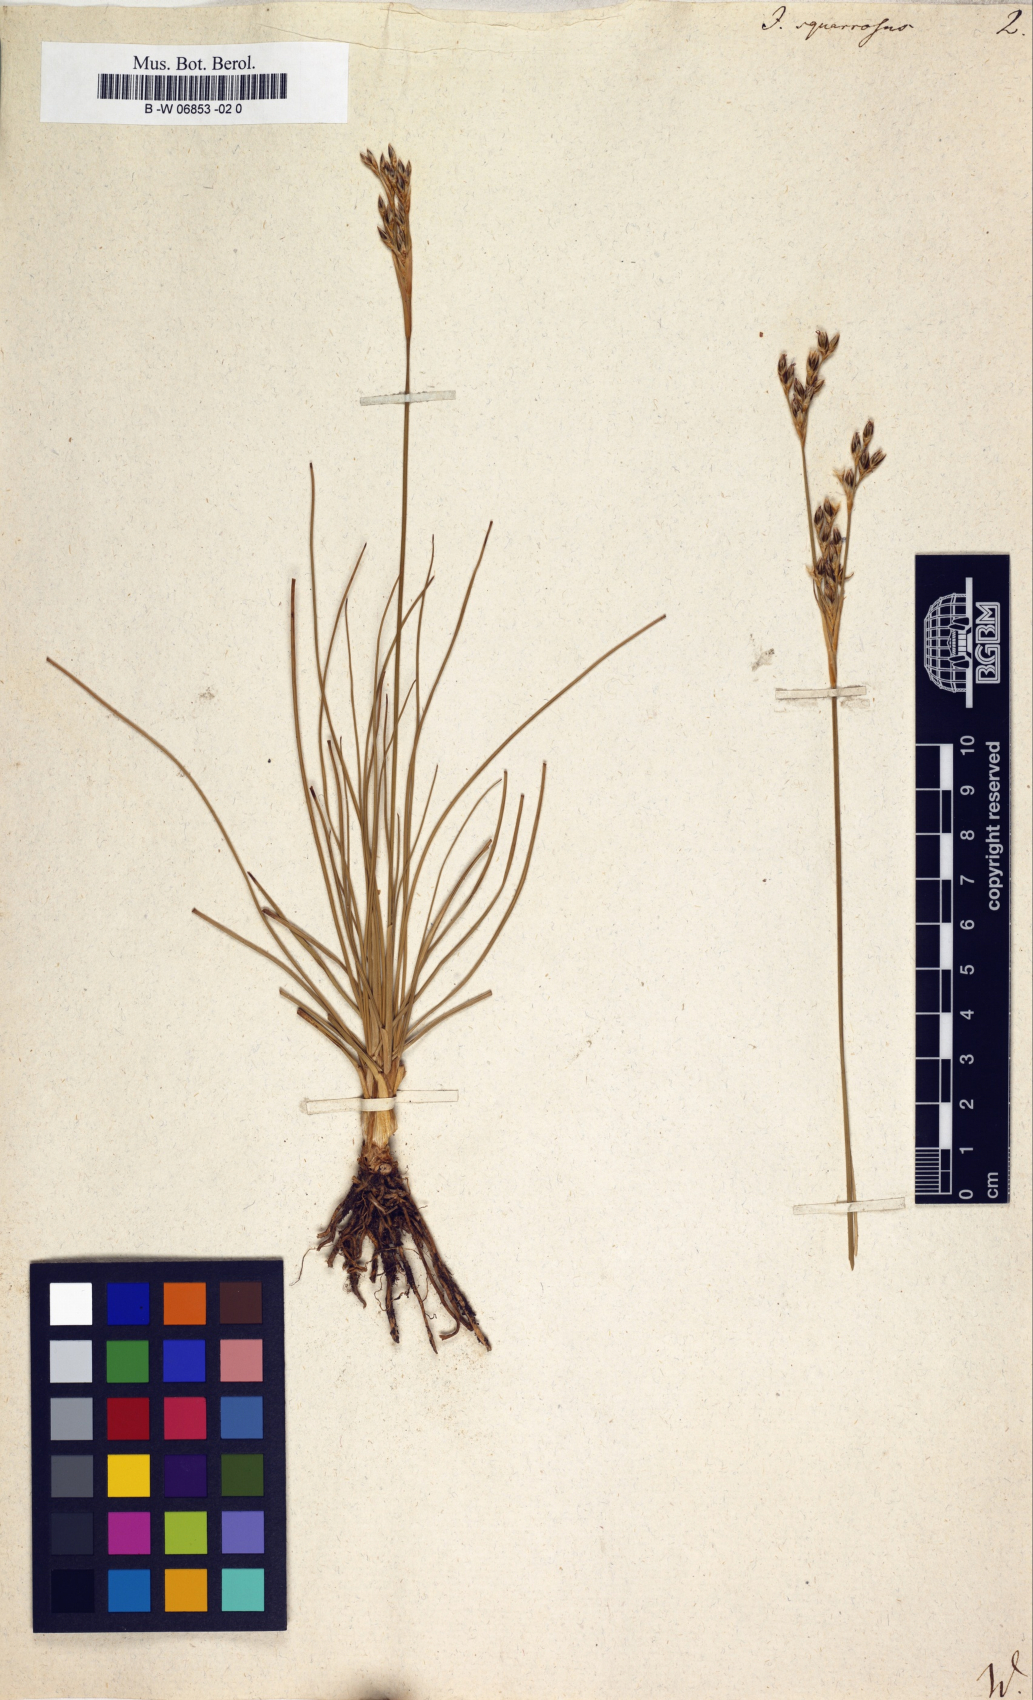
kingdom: Plantae
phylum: Tracheophyta
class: Liliopsida
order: Poales
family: Juncaceae
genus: Juncus
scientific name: Juncus squarrosus
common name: Heath rush
